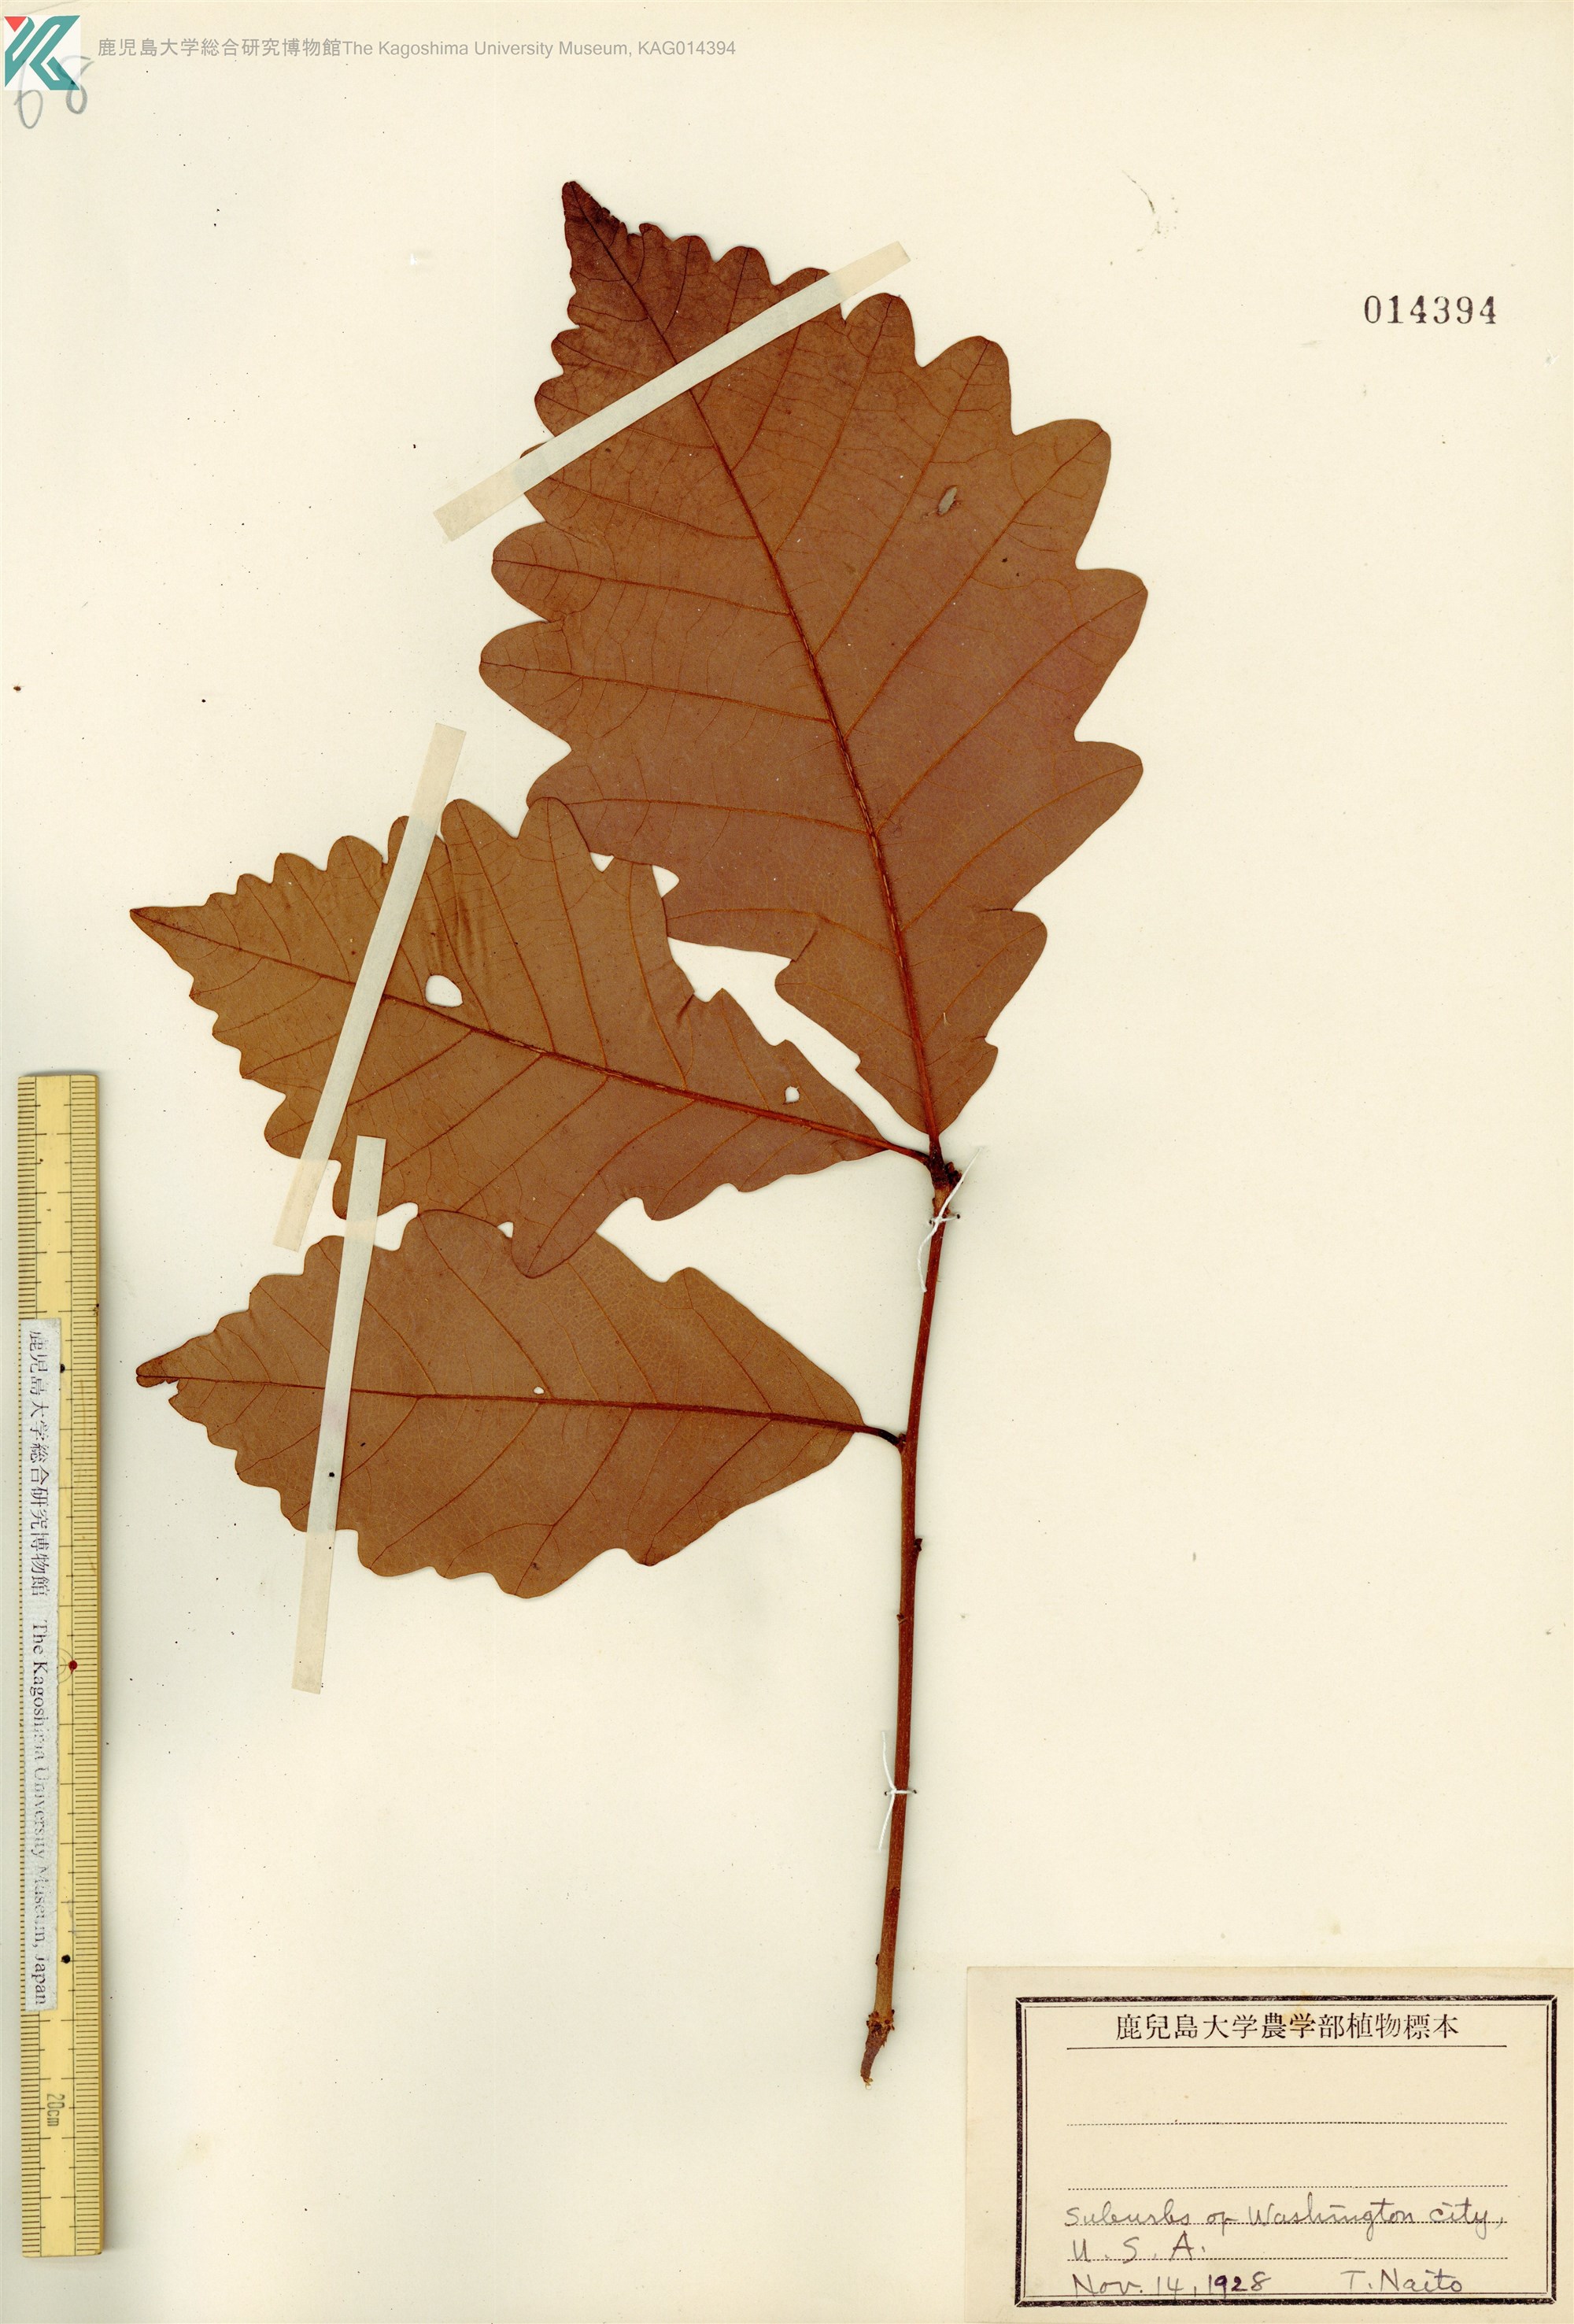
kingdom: Plantae
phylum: Tracheophyta
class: Magnoliopsida
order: Fagales
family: Fagaceae
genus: Quercus
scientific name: Quercus
